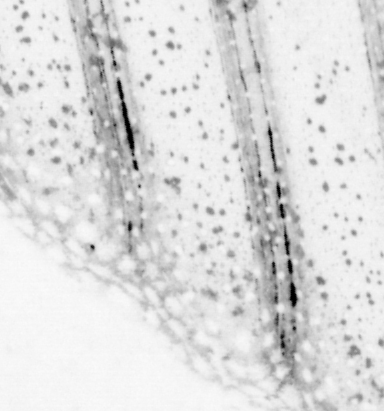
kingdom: Animalia
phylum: Chordata
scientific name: Chordata
